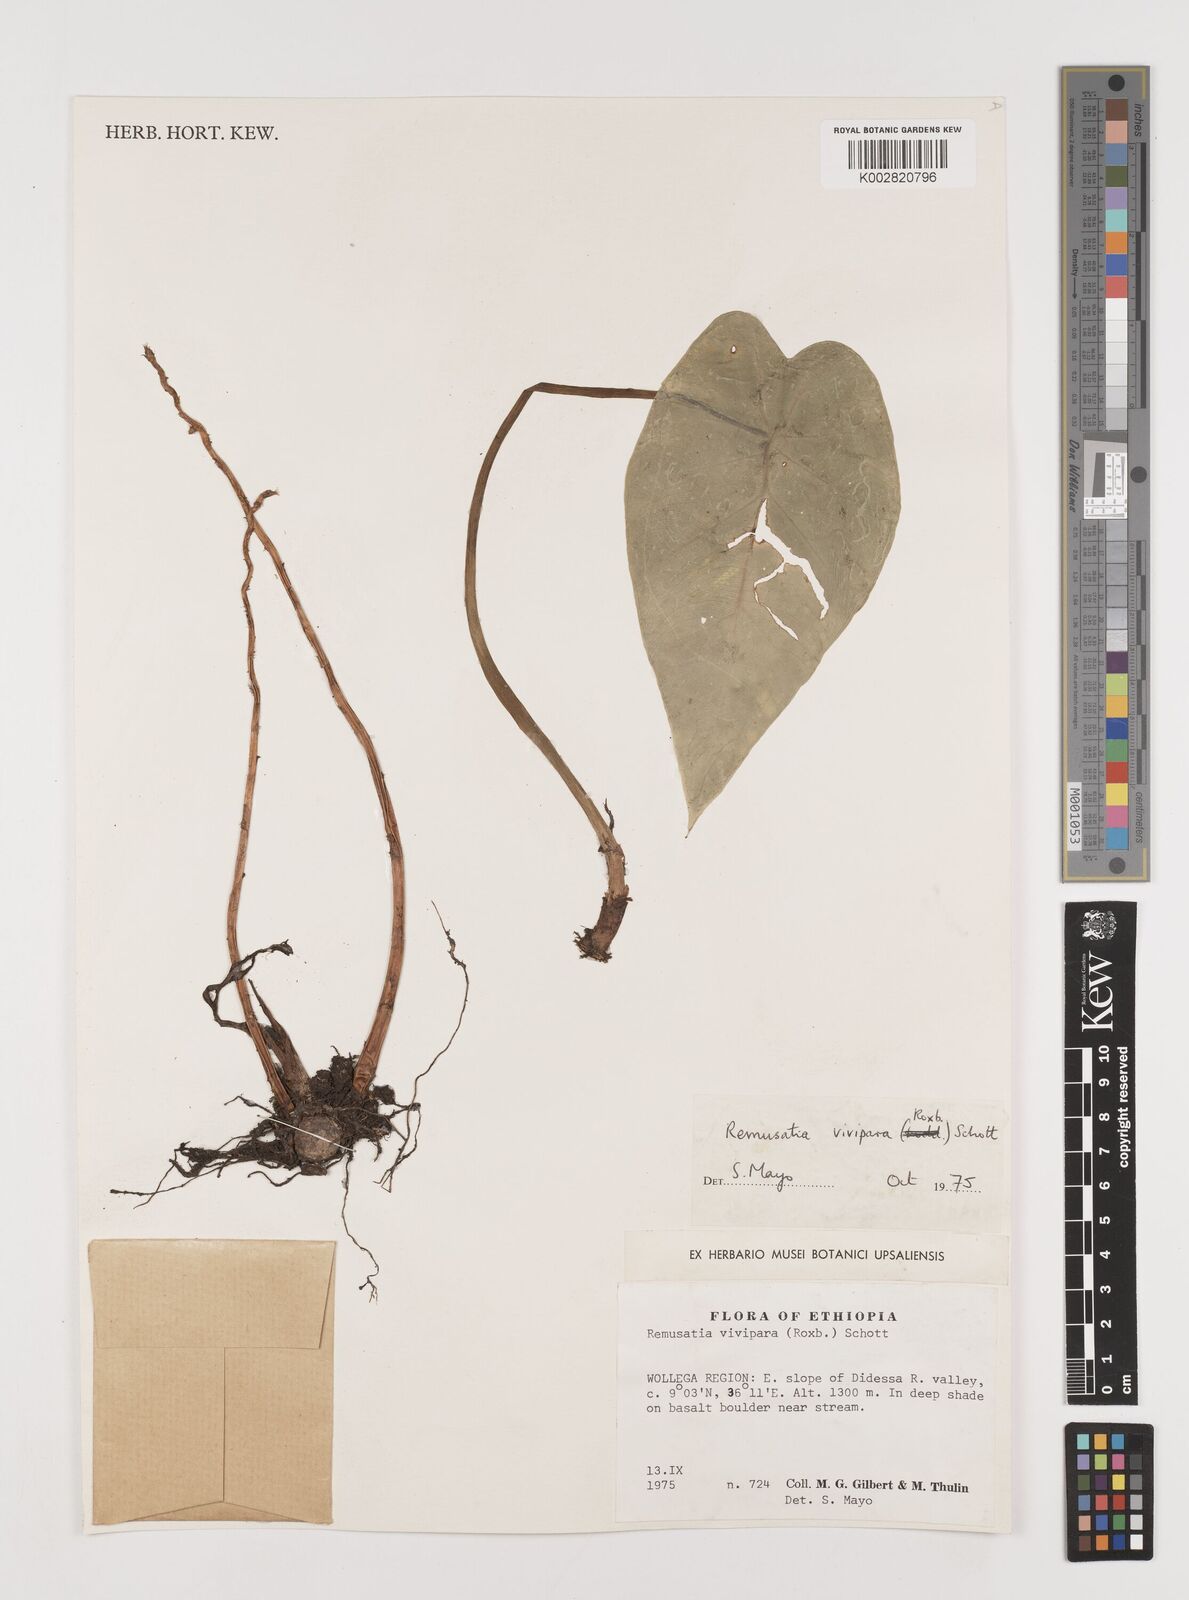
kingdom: Plantae
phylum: Tracheophyta
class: Liliopsida
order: Alismatales
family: Araceae
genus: Remusatia
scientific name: Remusatia vivipara
